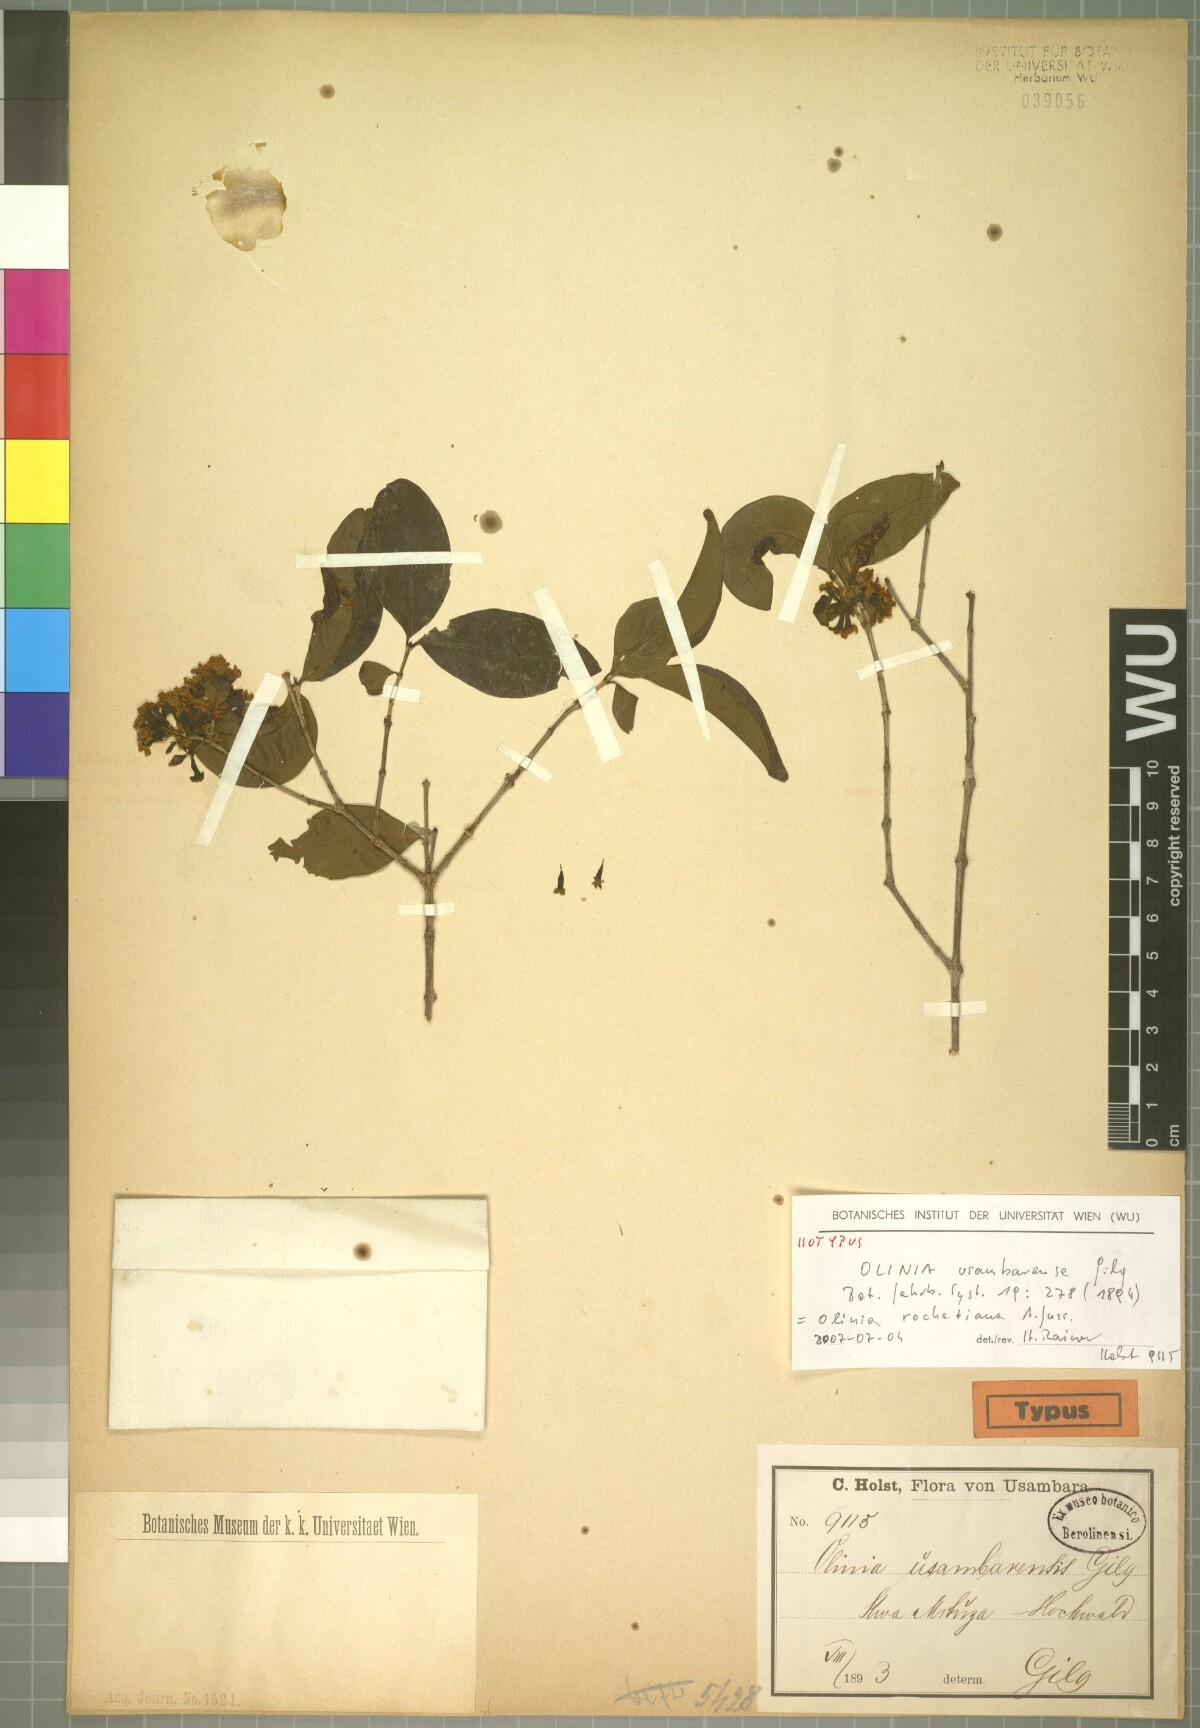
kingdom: Plantae
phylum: Tracheophyta
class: Magnoliopsida
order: Myrtales
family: Penaeaceae
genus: Olinia
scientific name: Olinia rochetiana
